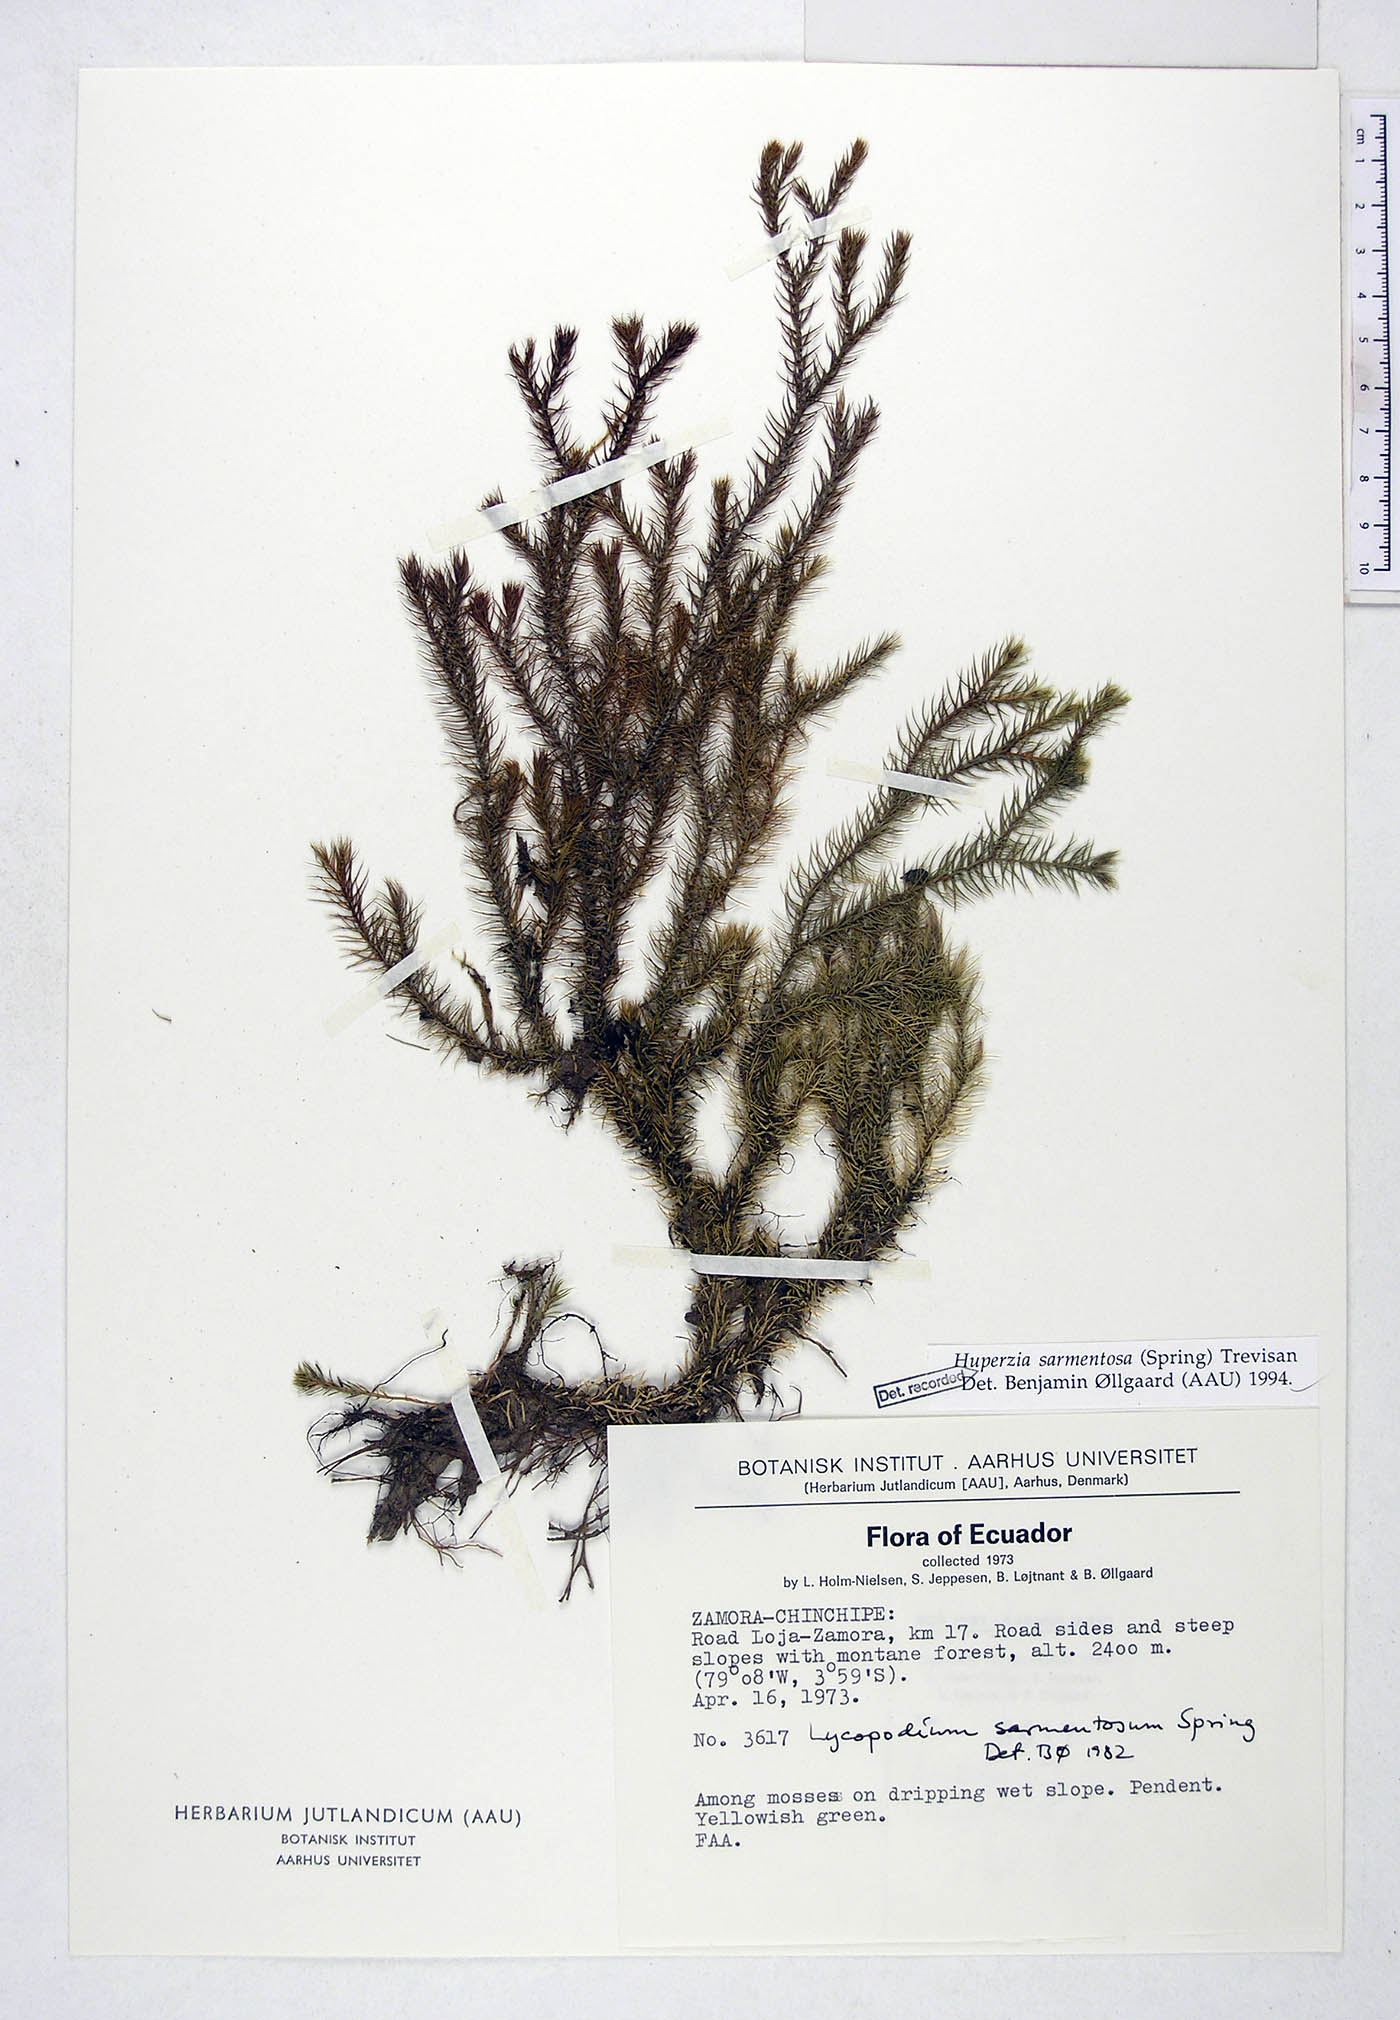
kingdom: Plantae
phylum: Tracheophyta
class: Lycopodiopsida
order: Lycopodiales
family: Lycopodiaceae
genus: Phlegmariurus
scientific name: Phlegmariurus sarmentosus
